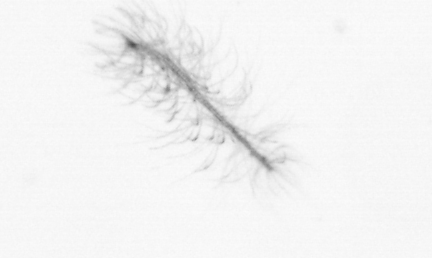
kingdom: Chromista
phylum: Ochrophyta
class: Bacillariophyceae
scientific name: Bacillariophyceae
